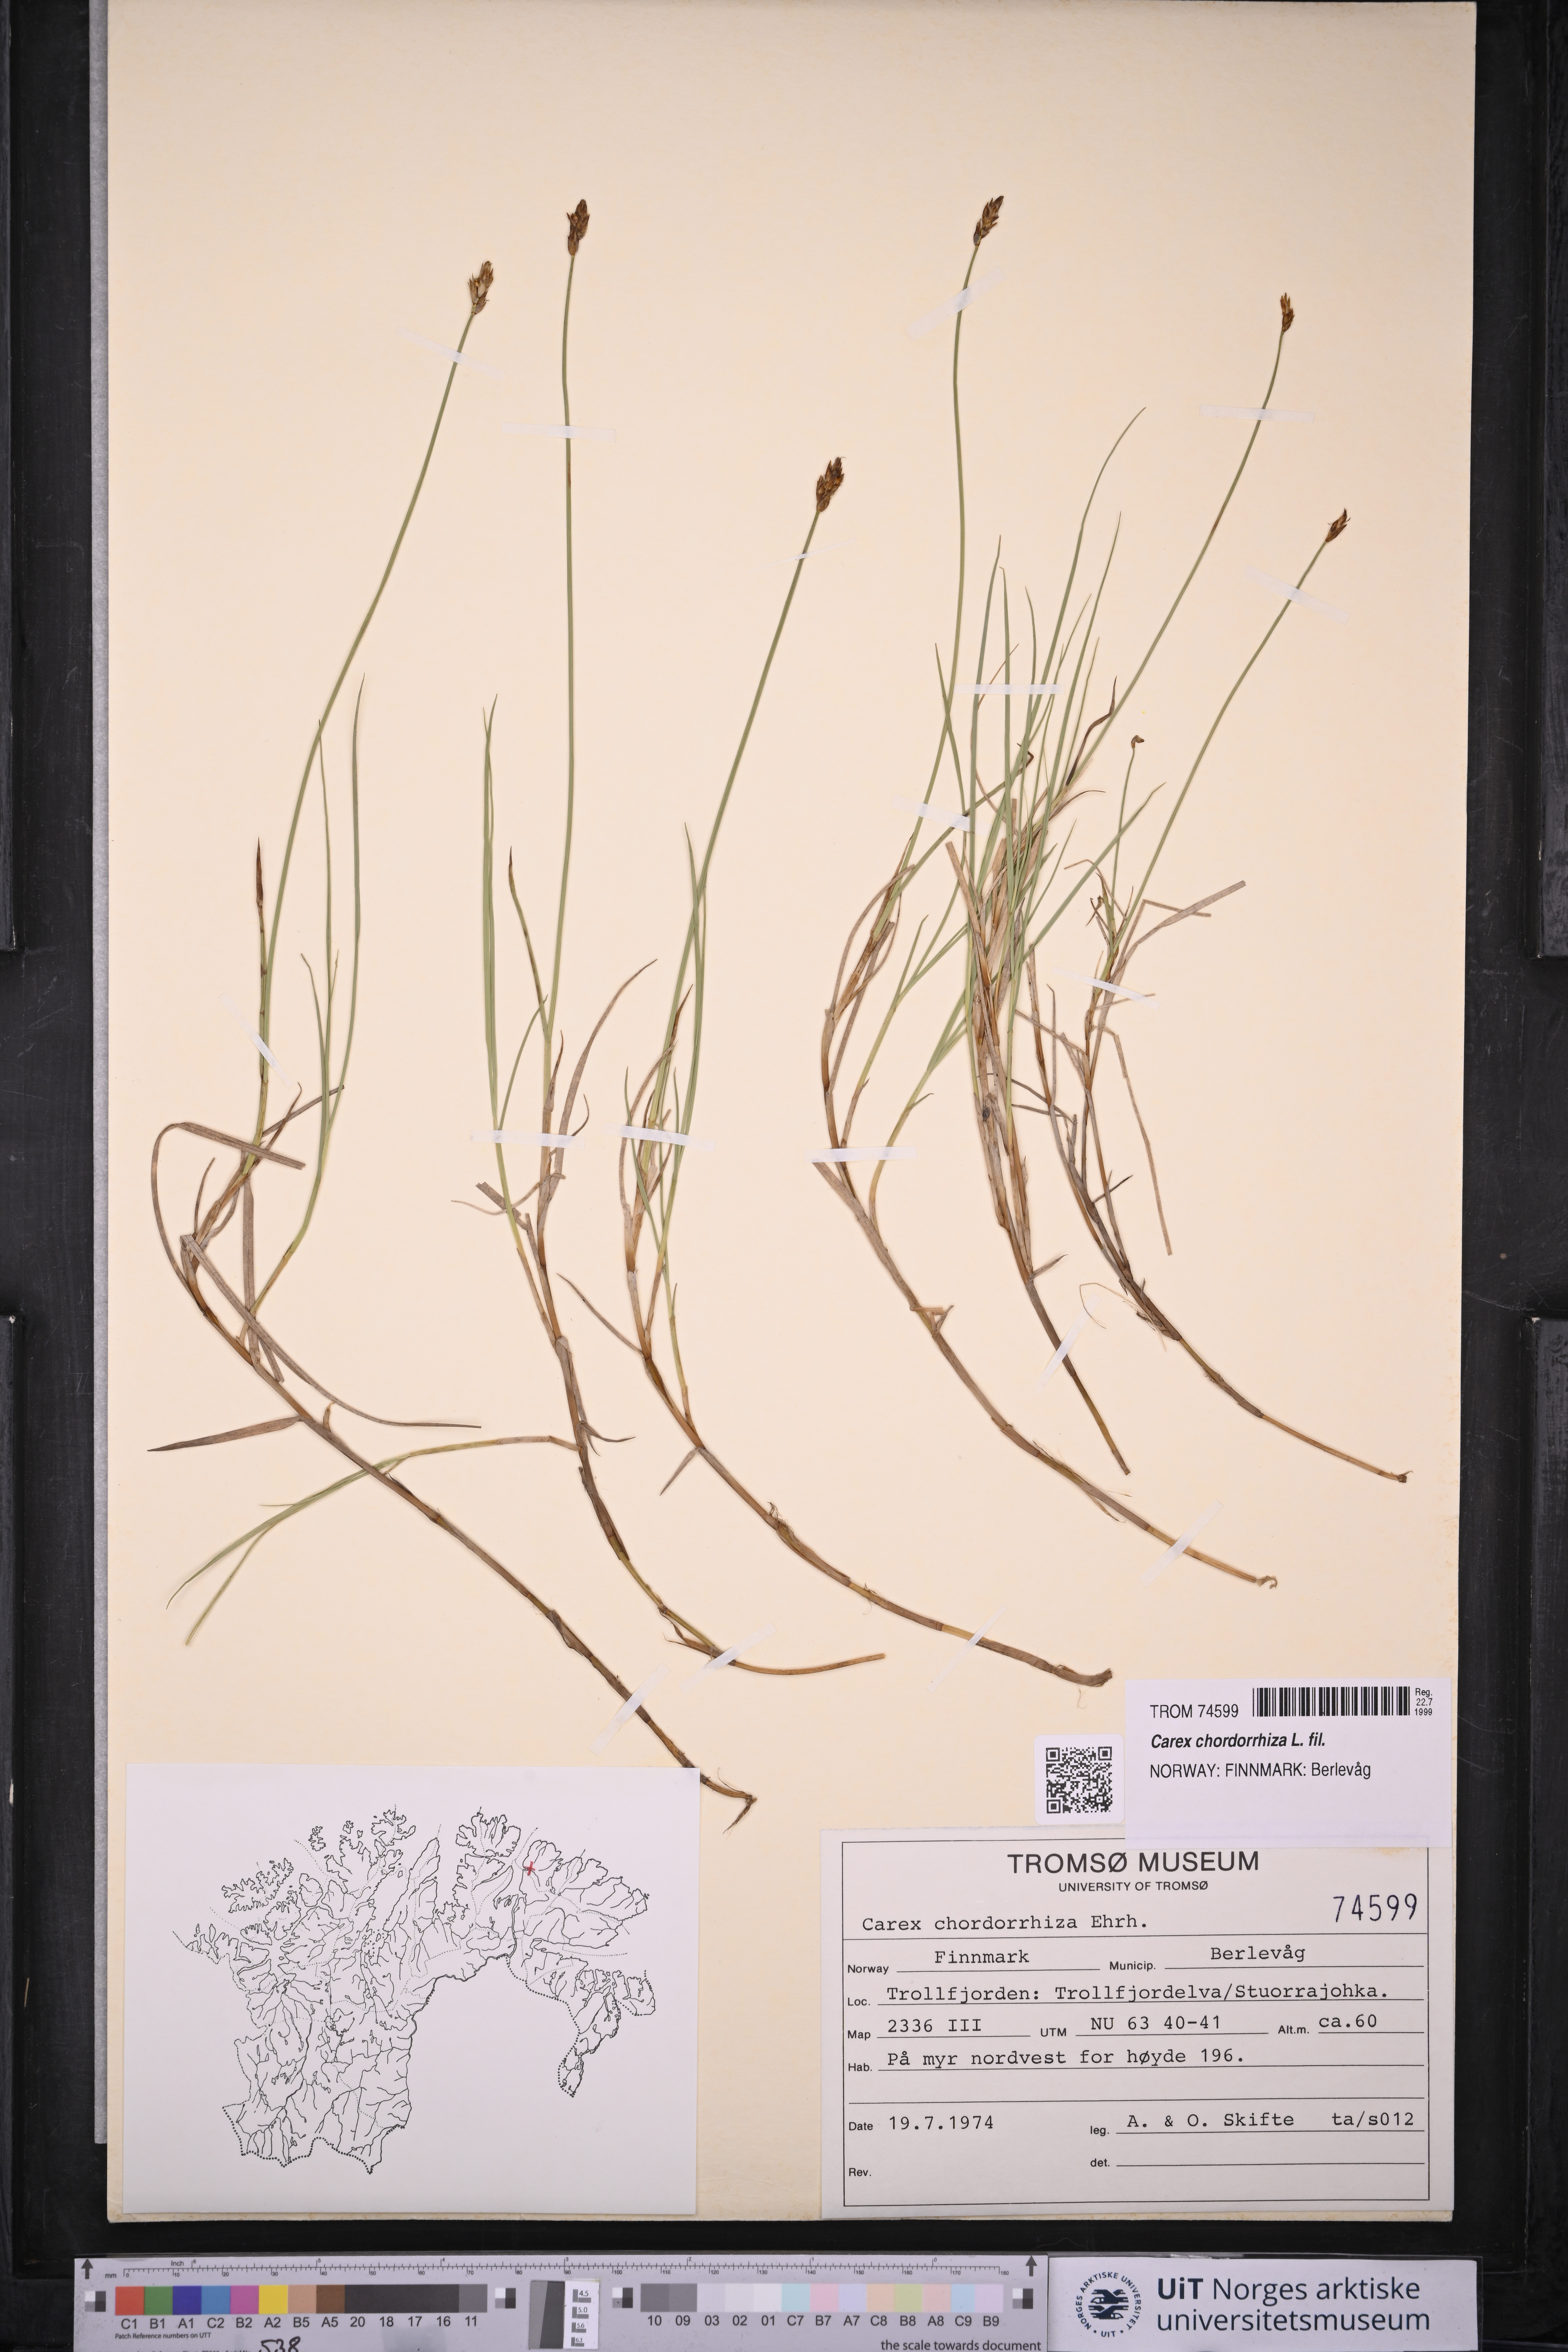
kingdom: Plantae
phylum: Tracheophyta
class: Liliopsida
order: Poales
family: Cyperaceae
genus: Carex
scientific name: Carex chordorrhiza
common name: String sedge
